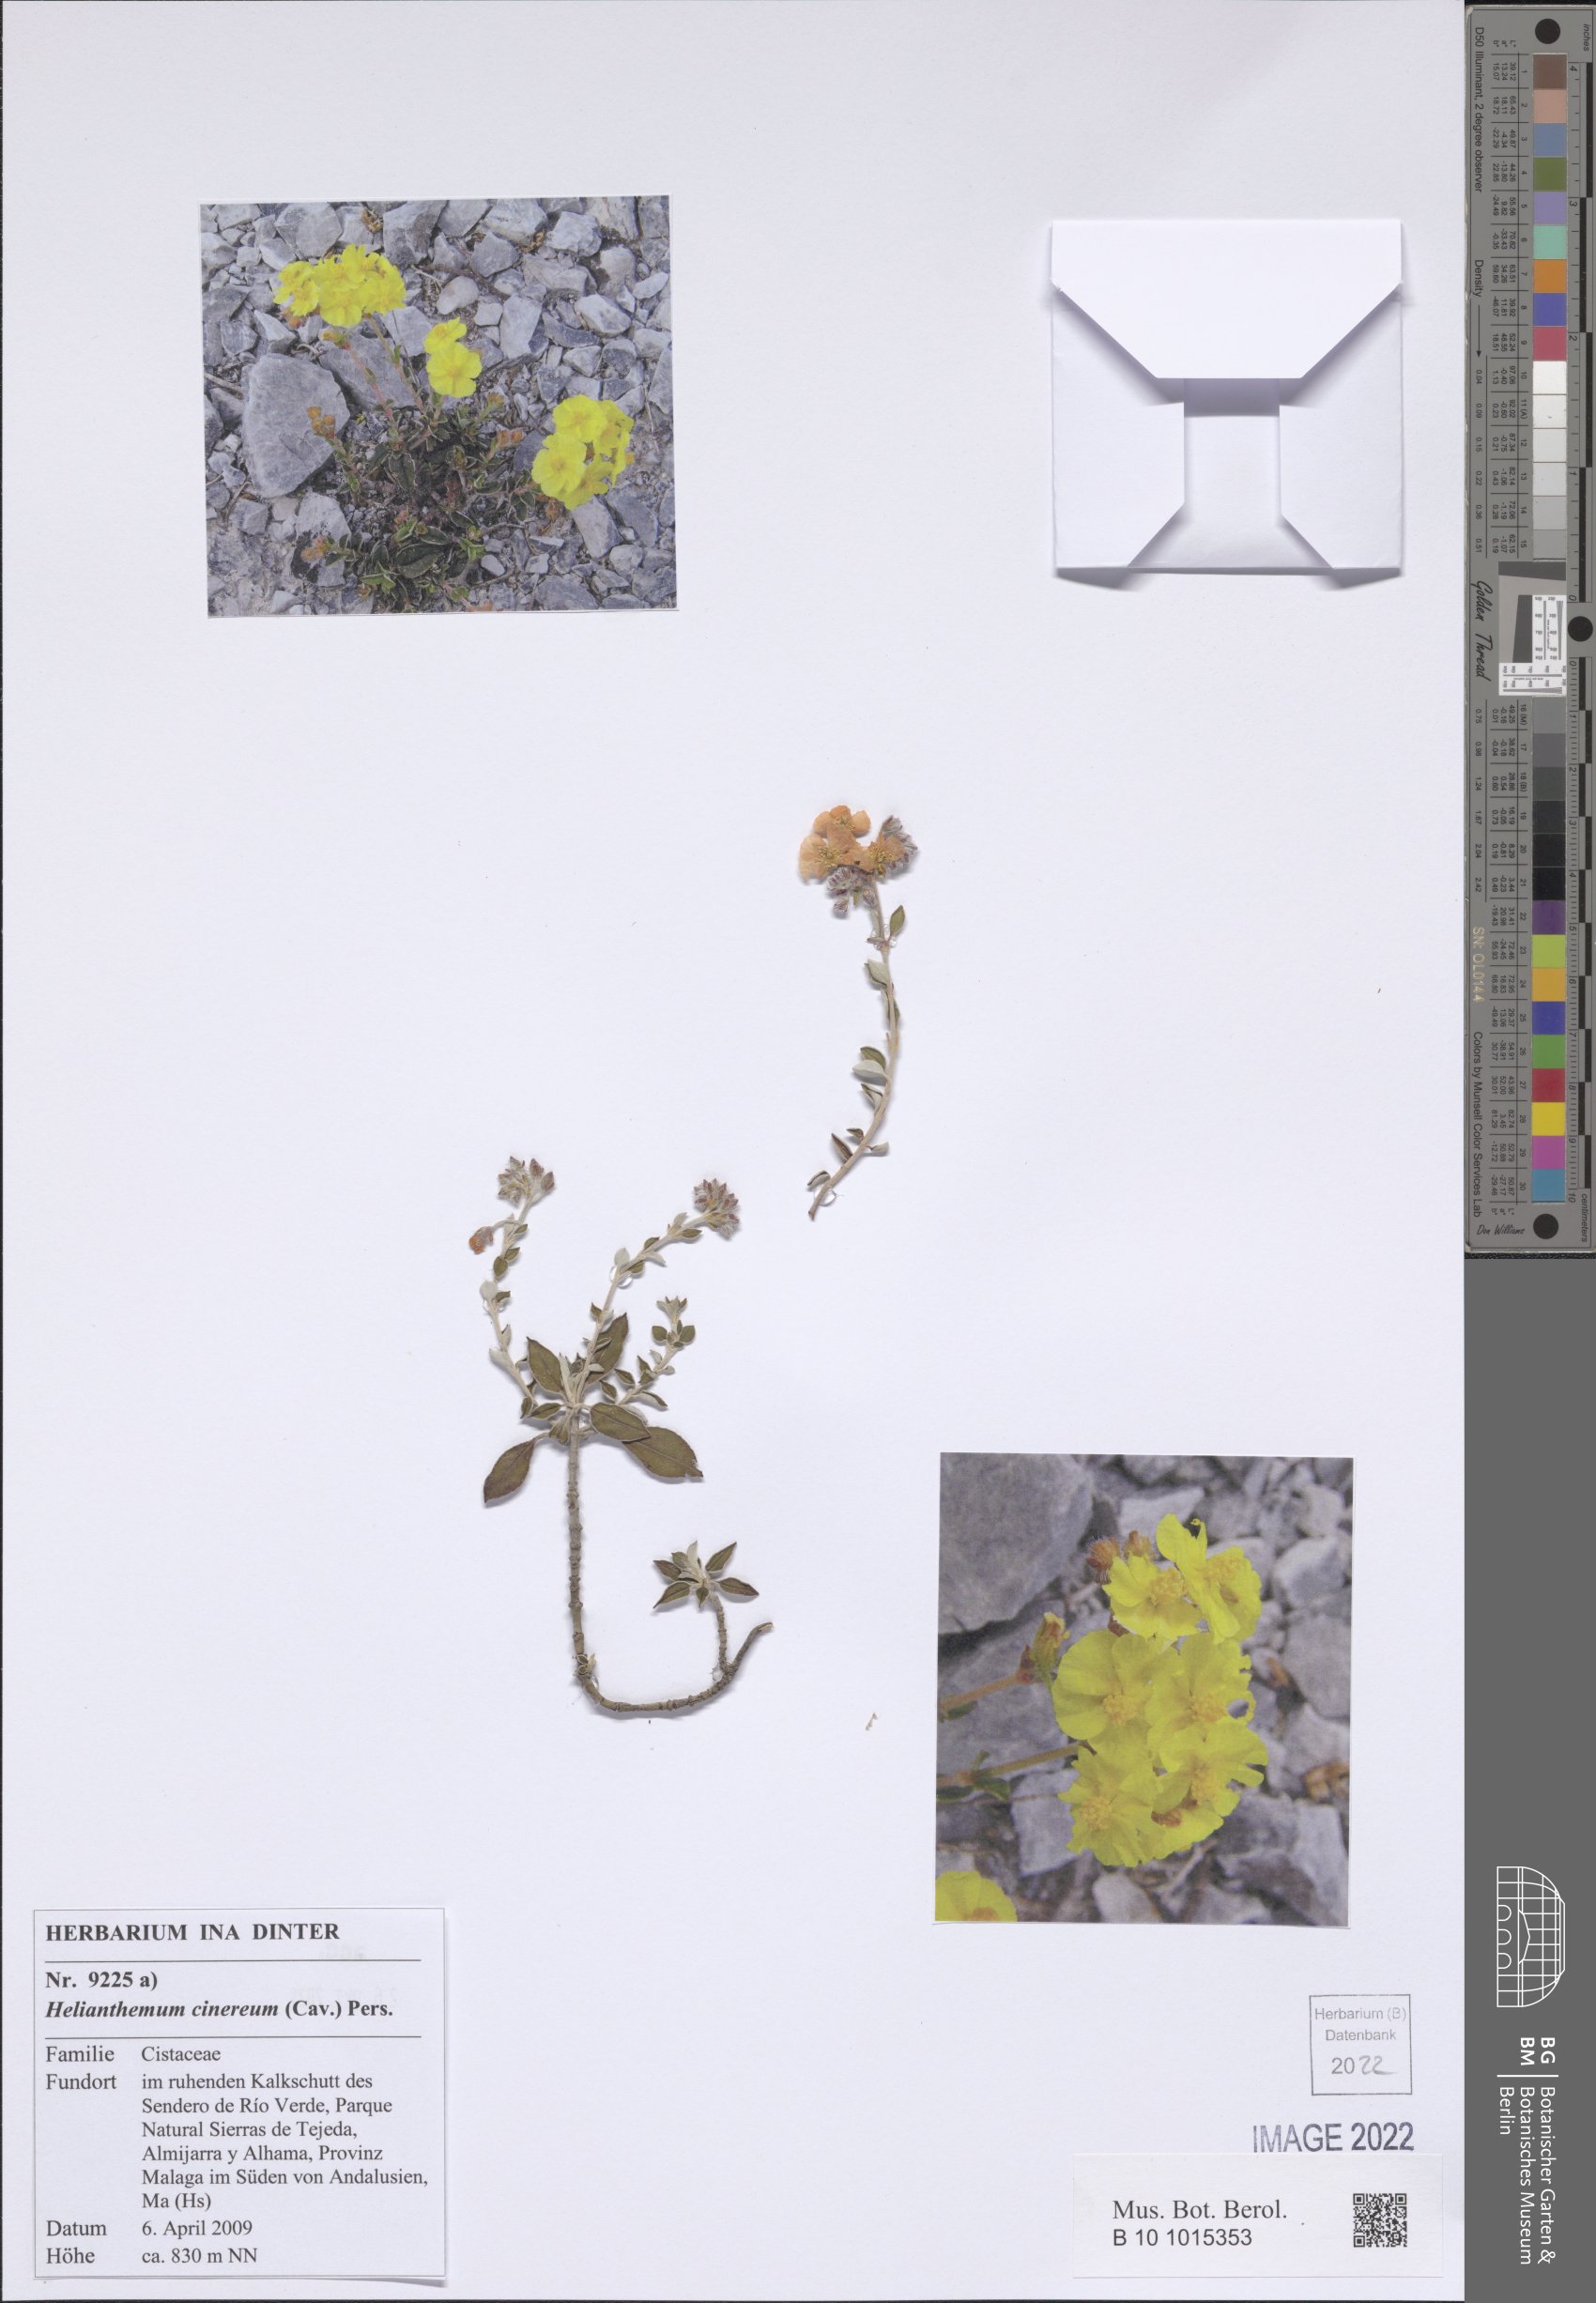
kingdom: Plantae
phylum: Tracheophyta
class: Magnoliopsida
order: Malvales
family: Cistaceae
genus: Helianthemum
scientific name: Helianthemum cinereum
